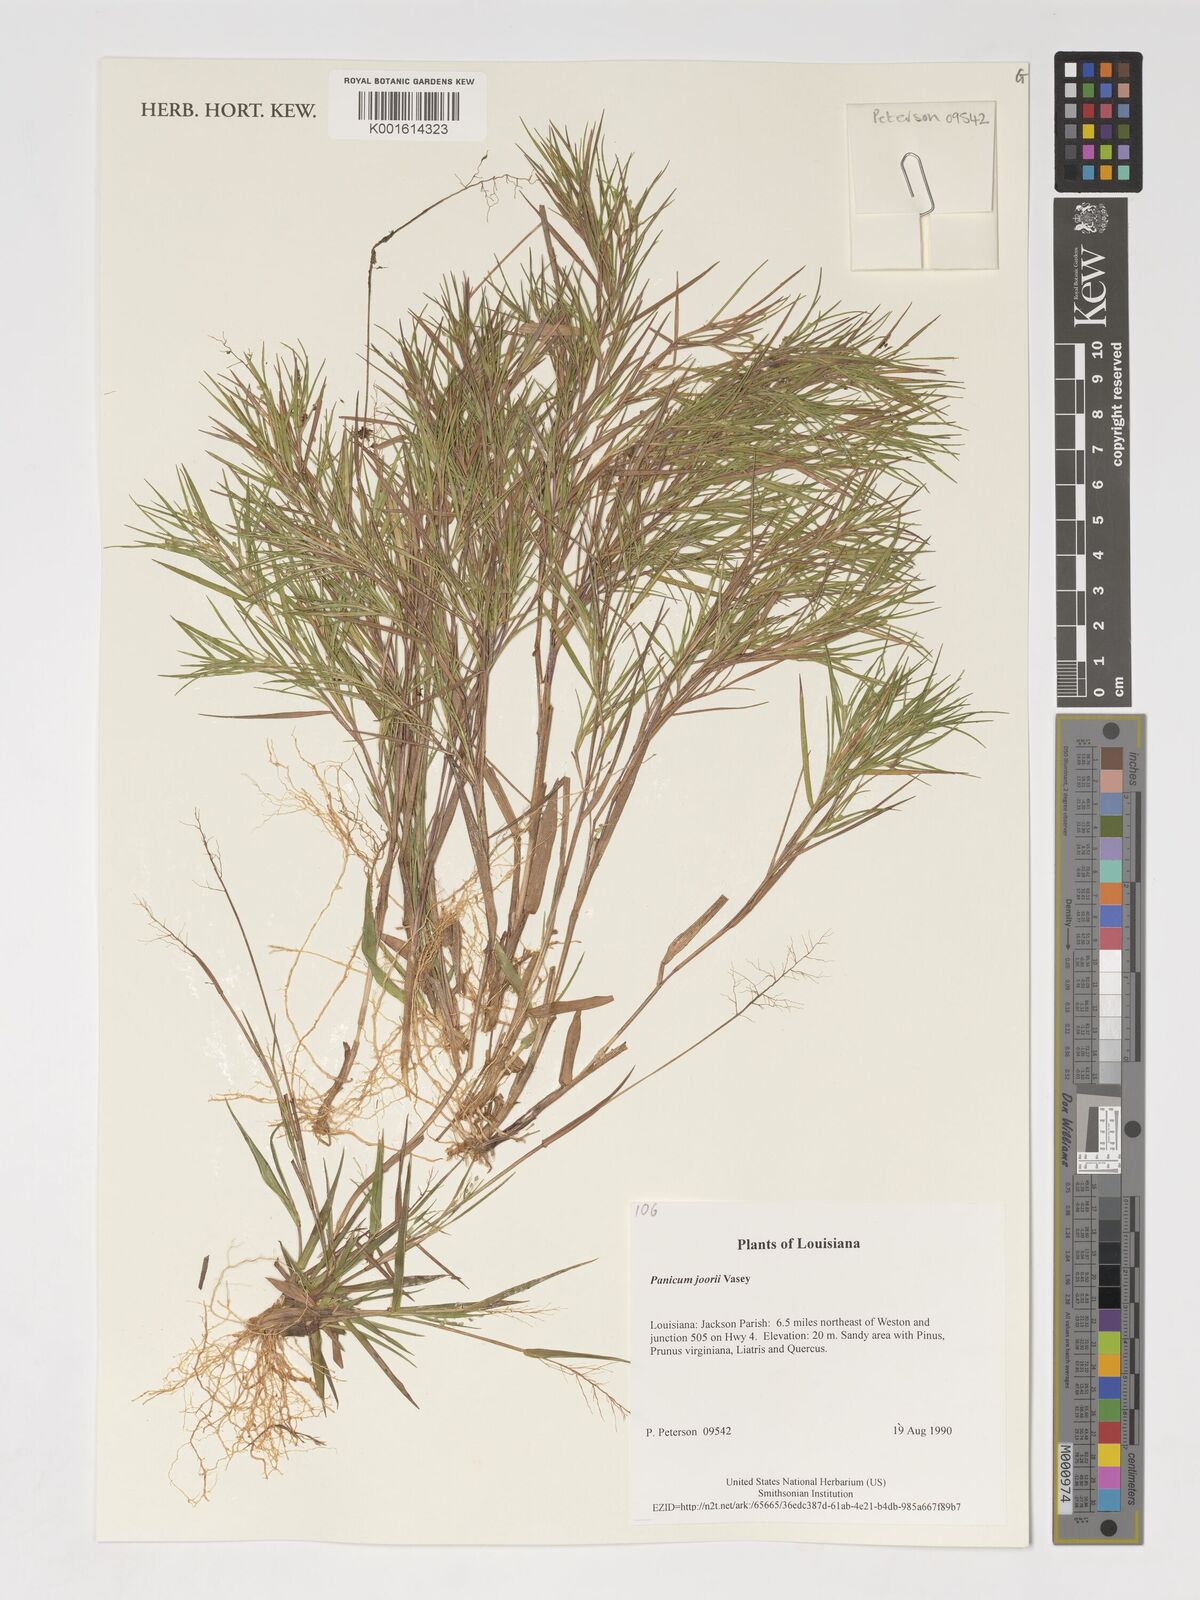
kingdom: Plantae
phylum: Tracheophyta
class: Liliopsida
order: Poales
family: Poaceae
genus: Dichanthelium
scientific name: Dichanthelium commutatum
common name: Variable witchgrass
